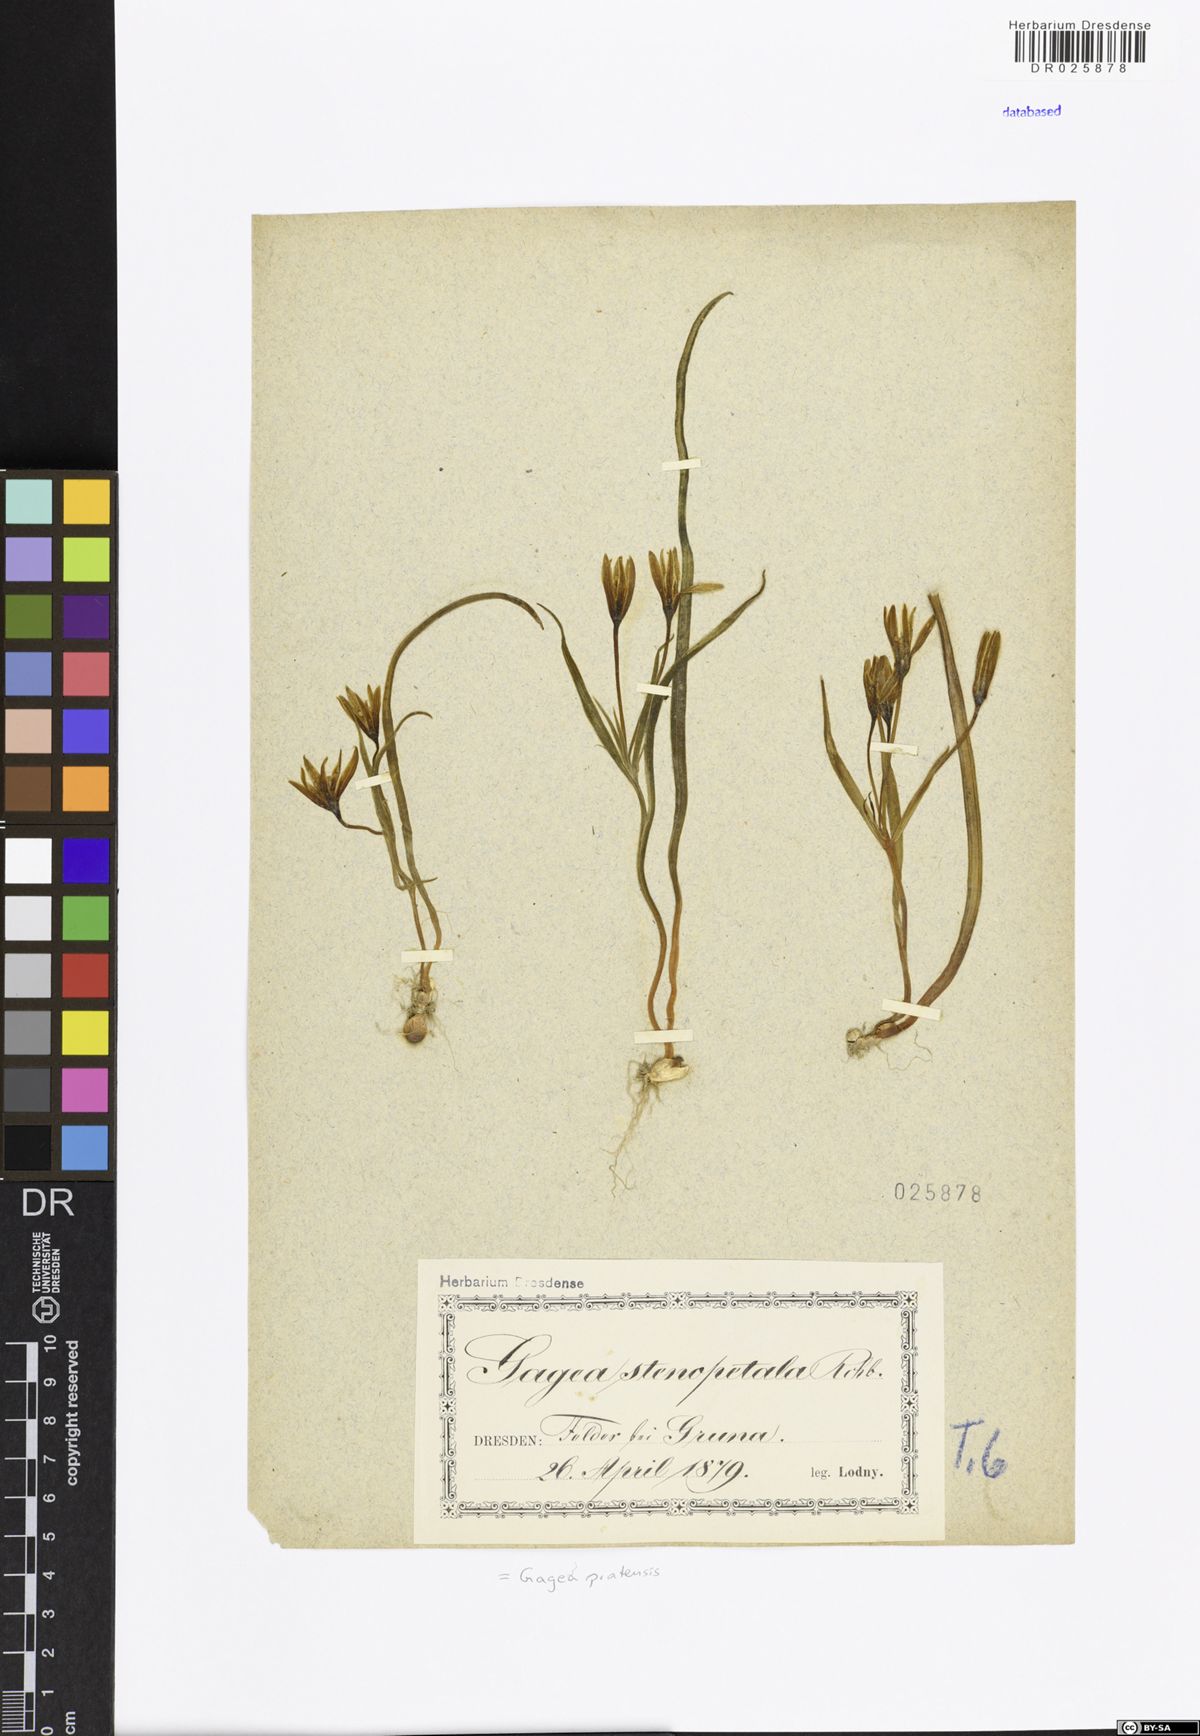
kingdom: Plantae
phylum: Tracheophyta
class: Liliopsida
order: Liliales
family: Liliaceae
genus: Gagea
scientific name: Gagea pratensis
